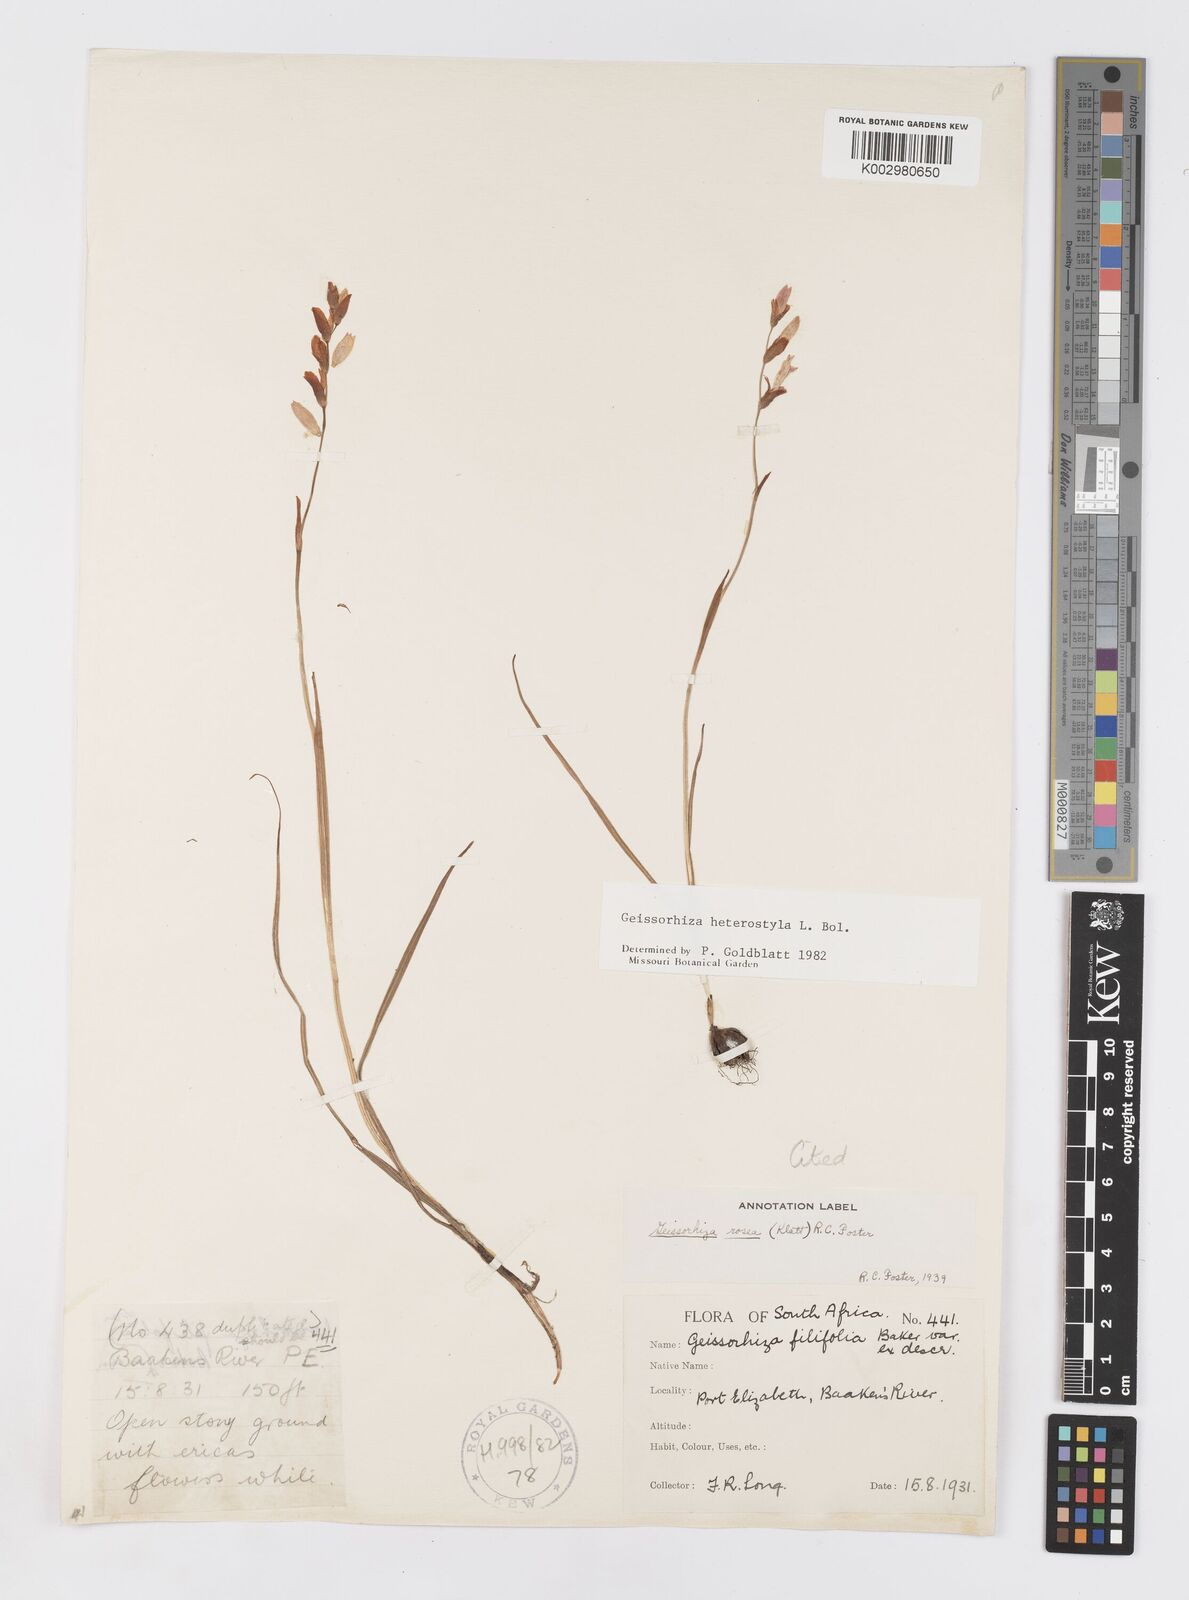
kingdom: Plantae
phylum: Tracheophyta
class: Liliopsida
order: Asparagales
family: Iridaceae
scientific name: Iridaceae
